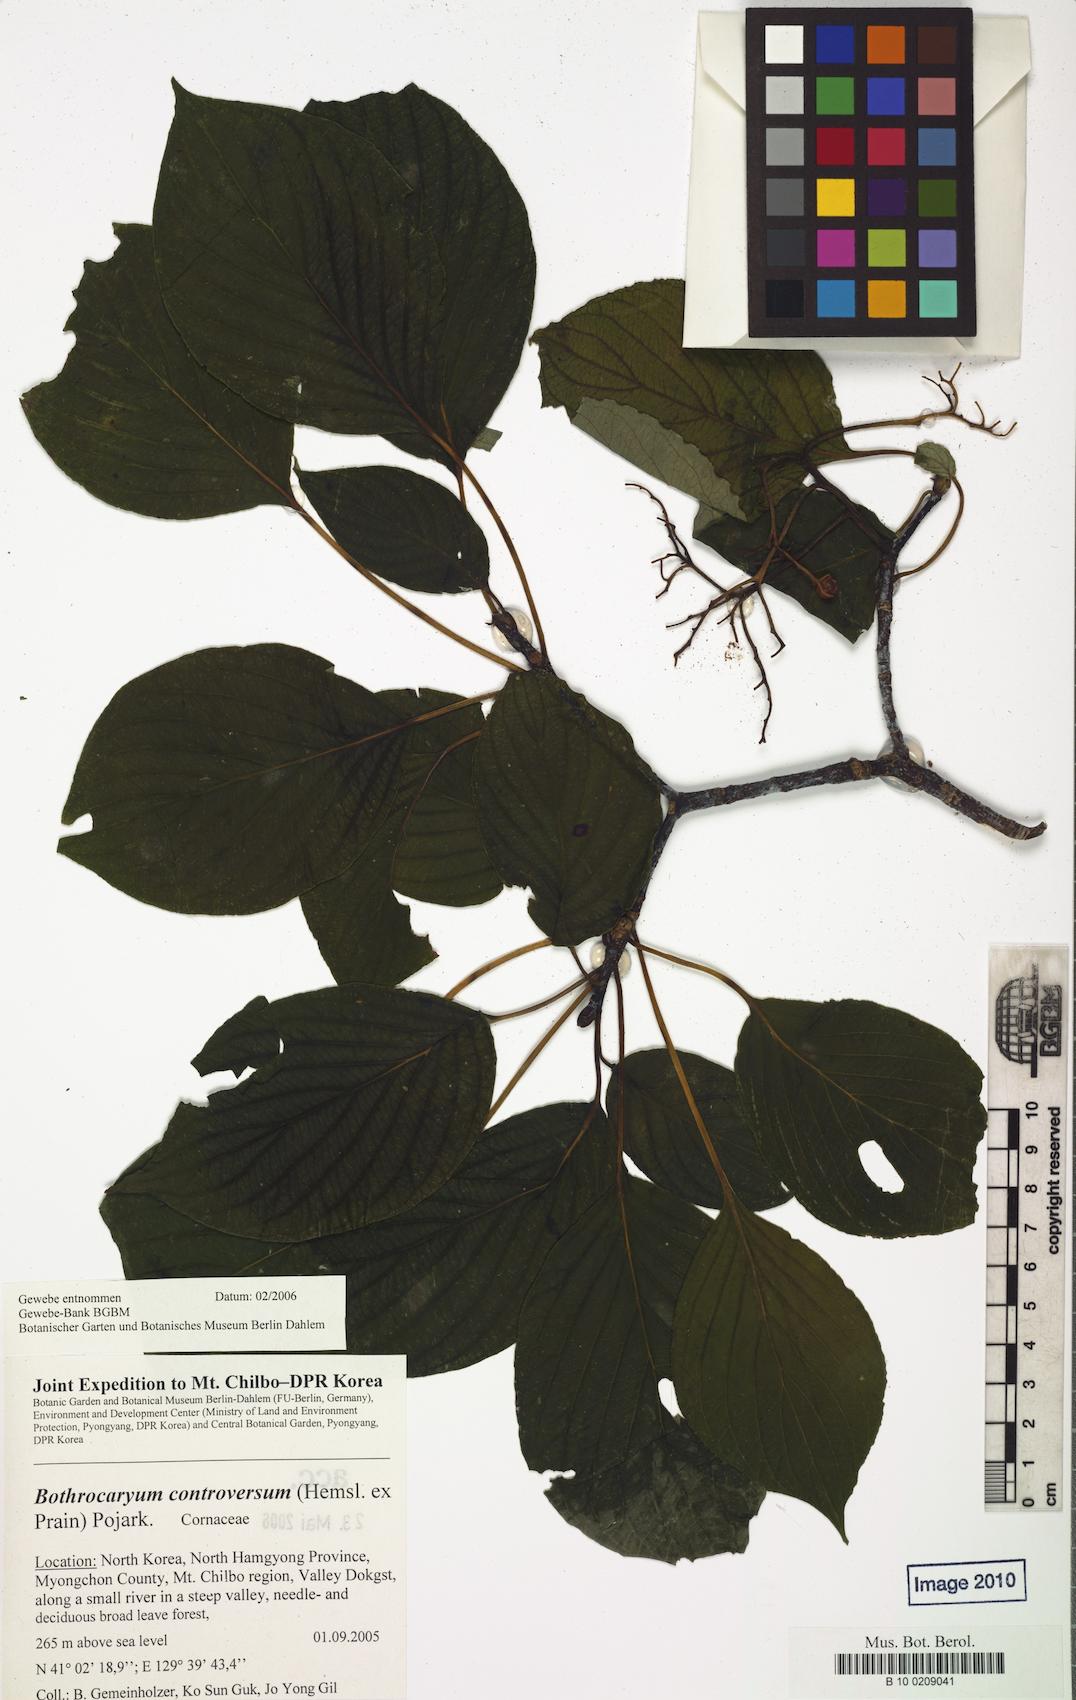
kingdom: Plantae
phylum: Tracheophyta
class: Magnoliopsida
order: Cornales
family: Cornaceae
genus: Cornus
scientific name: Cornus controversa
